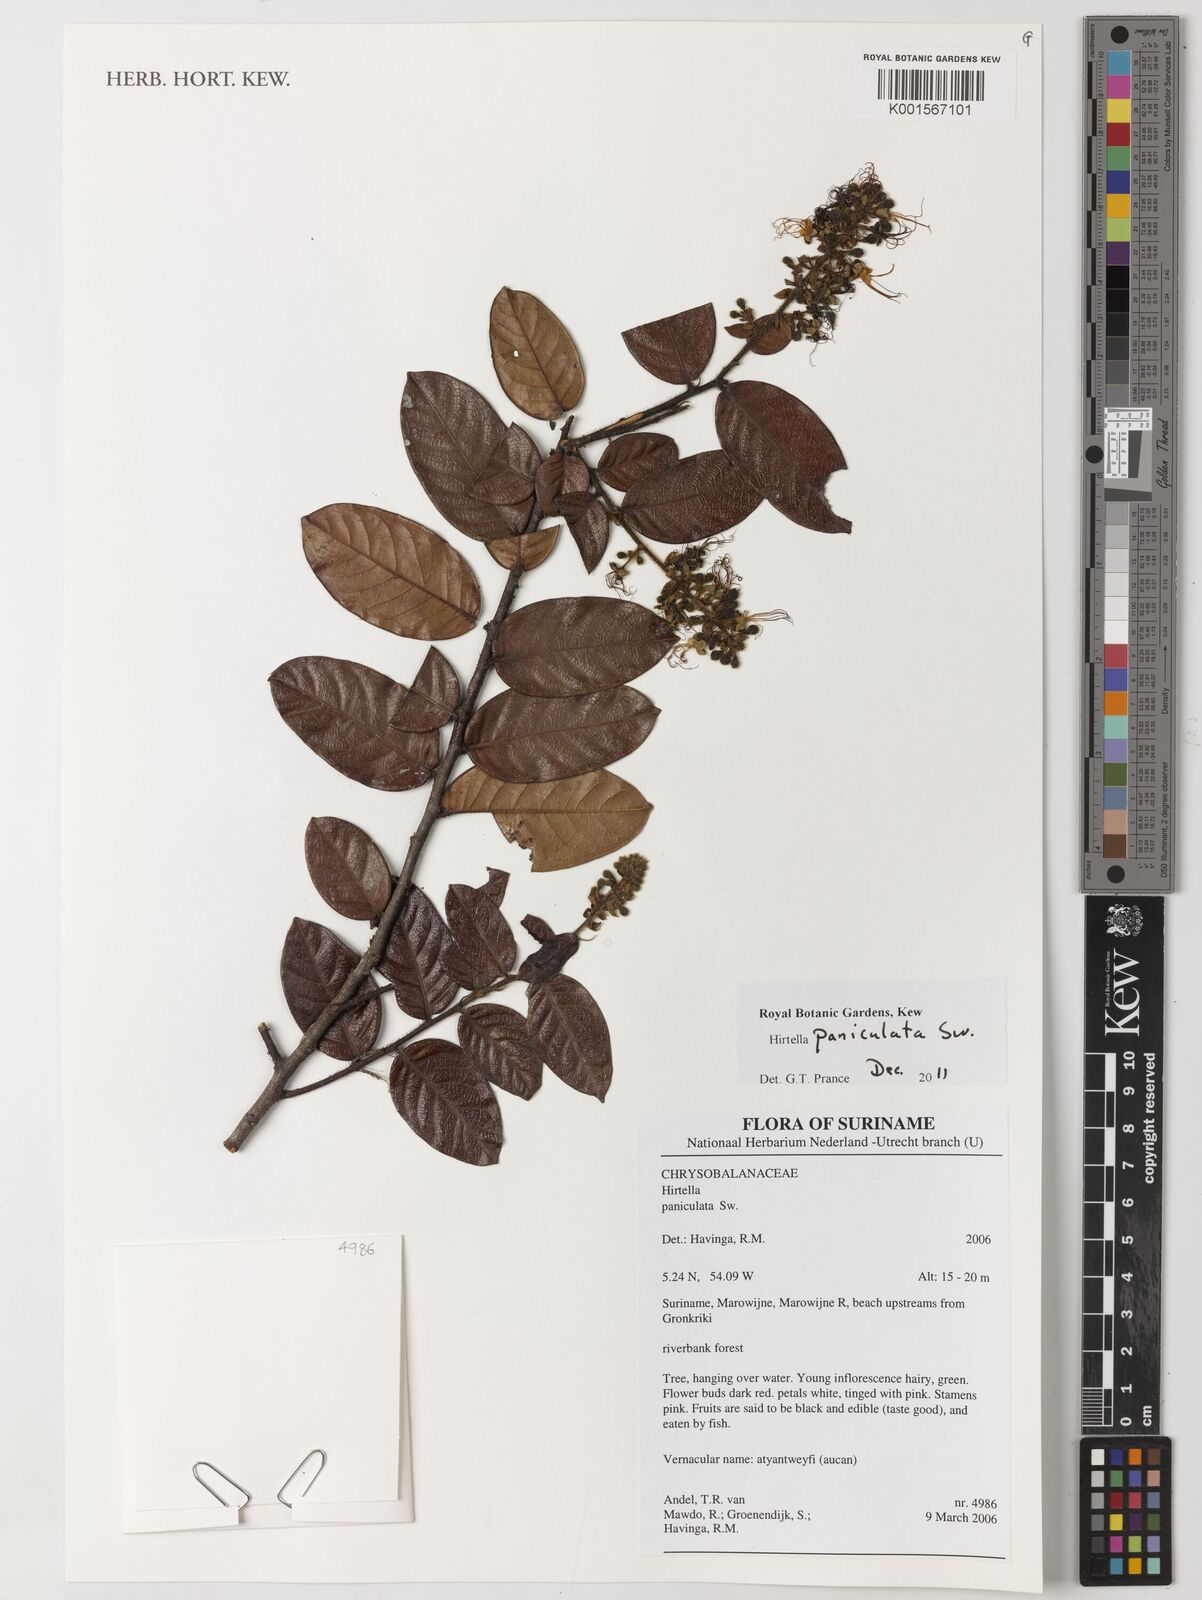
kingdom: Plantae
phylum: Tracheophyta
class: Magnoliopsida
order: Malpighiales
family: Chrysobalanaceae
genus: Hirtella
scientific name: Hirtella paniculata
